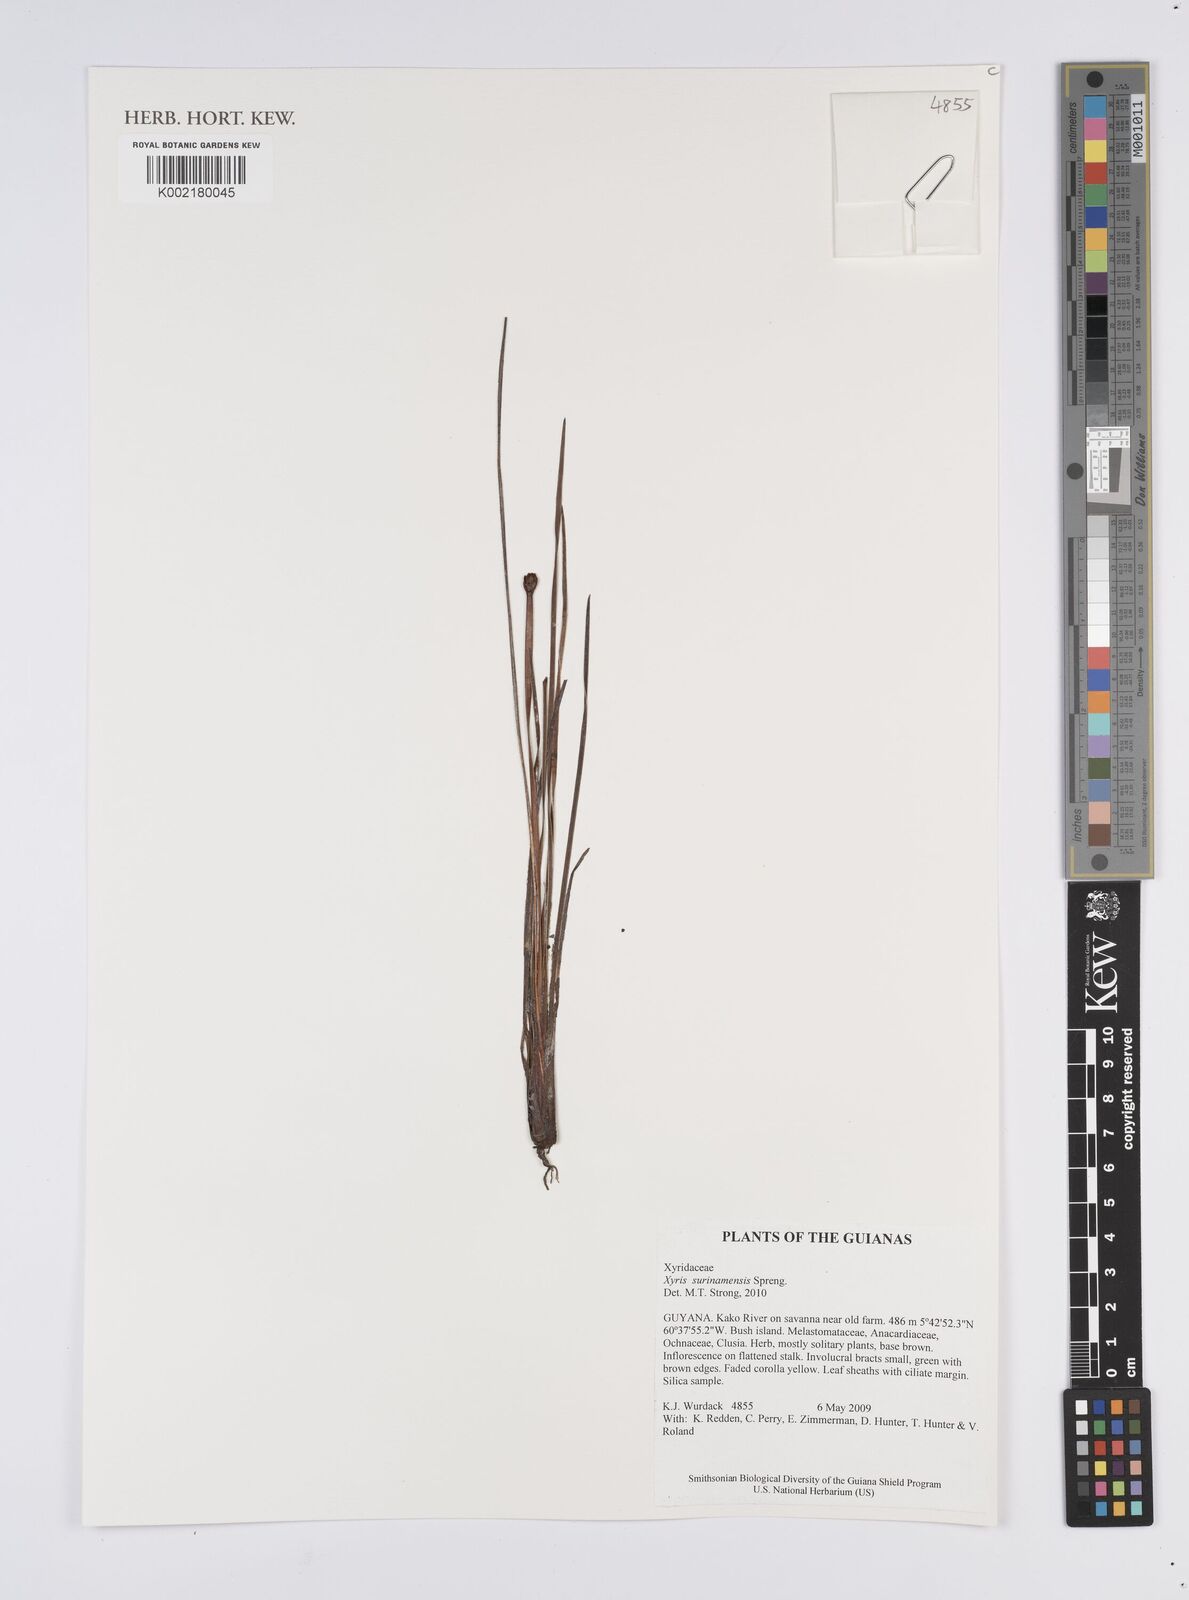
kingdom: Plantae
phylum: Tracheophyta
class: Liliopsida
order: Poales
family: Xyridaceae
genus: Xyris
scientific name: Xyris surinamensis
